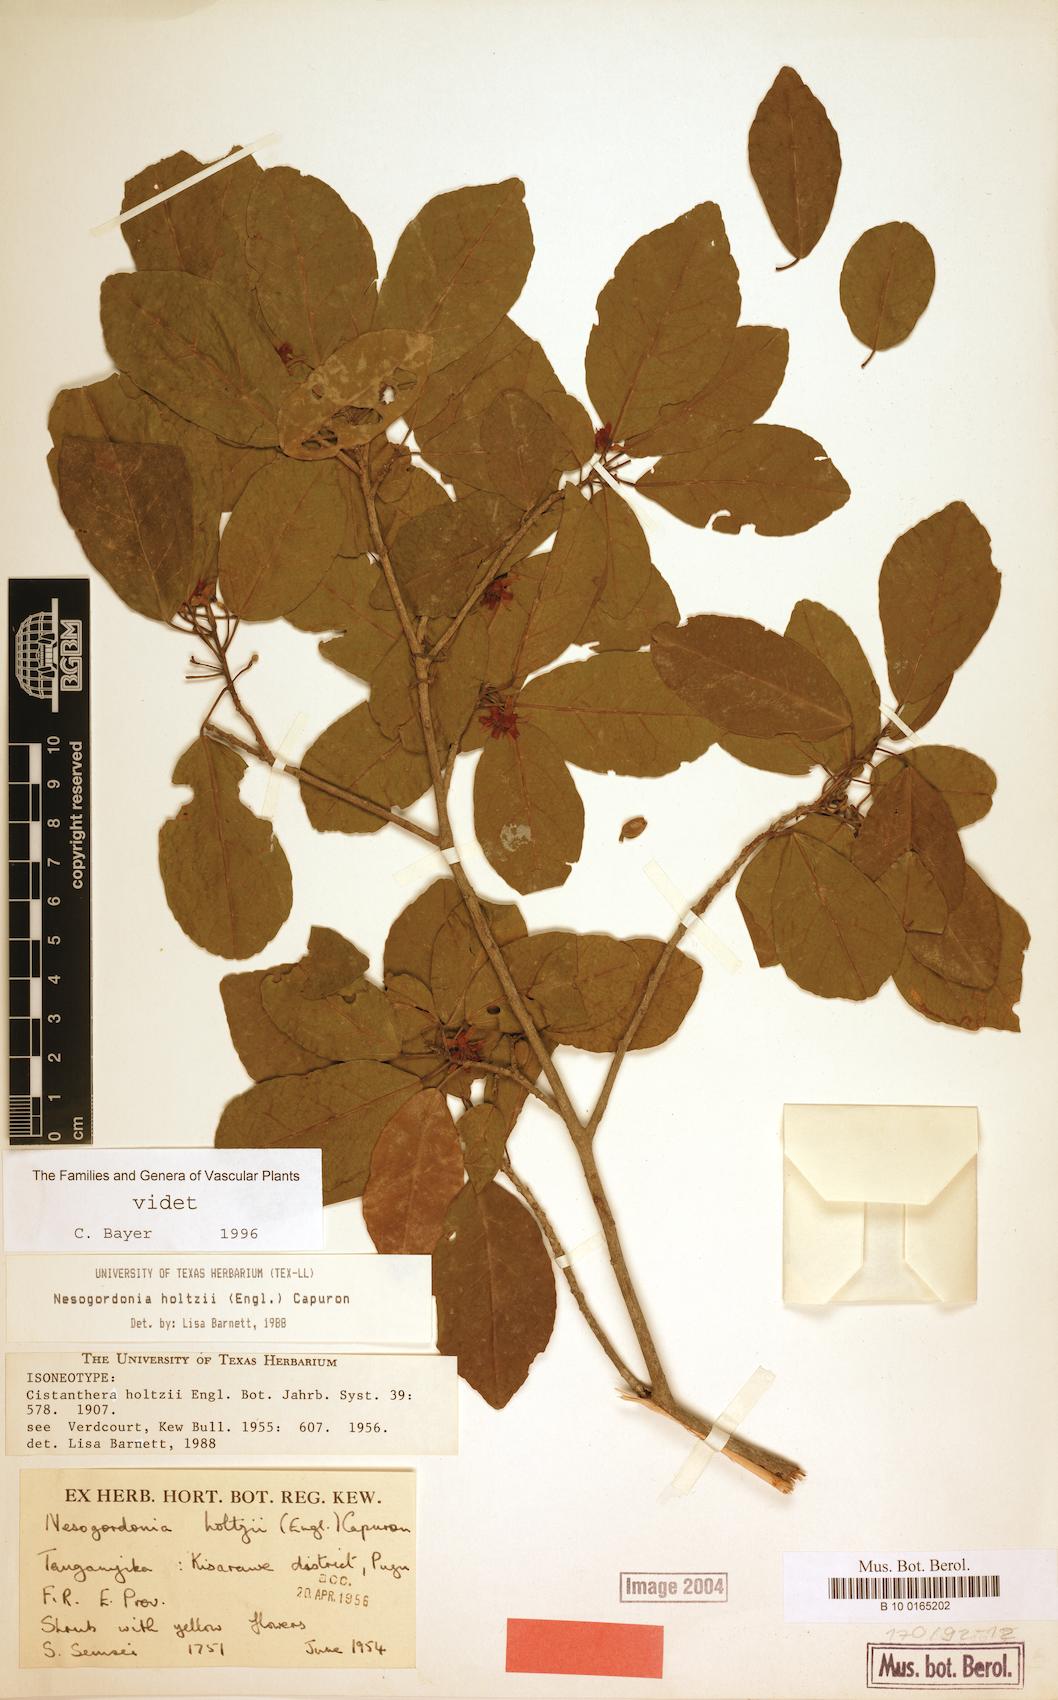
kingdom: Plantae
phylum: Tracheophyta
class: Magnoliopsida
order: Malvales
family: Malvaceae
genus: Nesogordonia
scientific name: Nesogordonia holtzii
